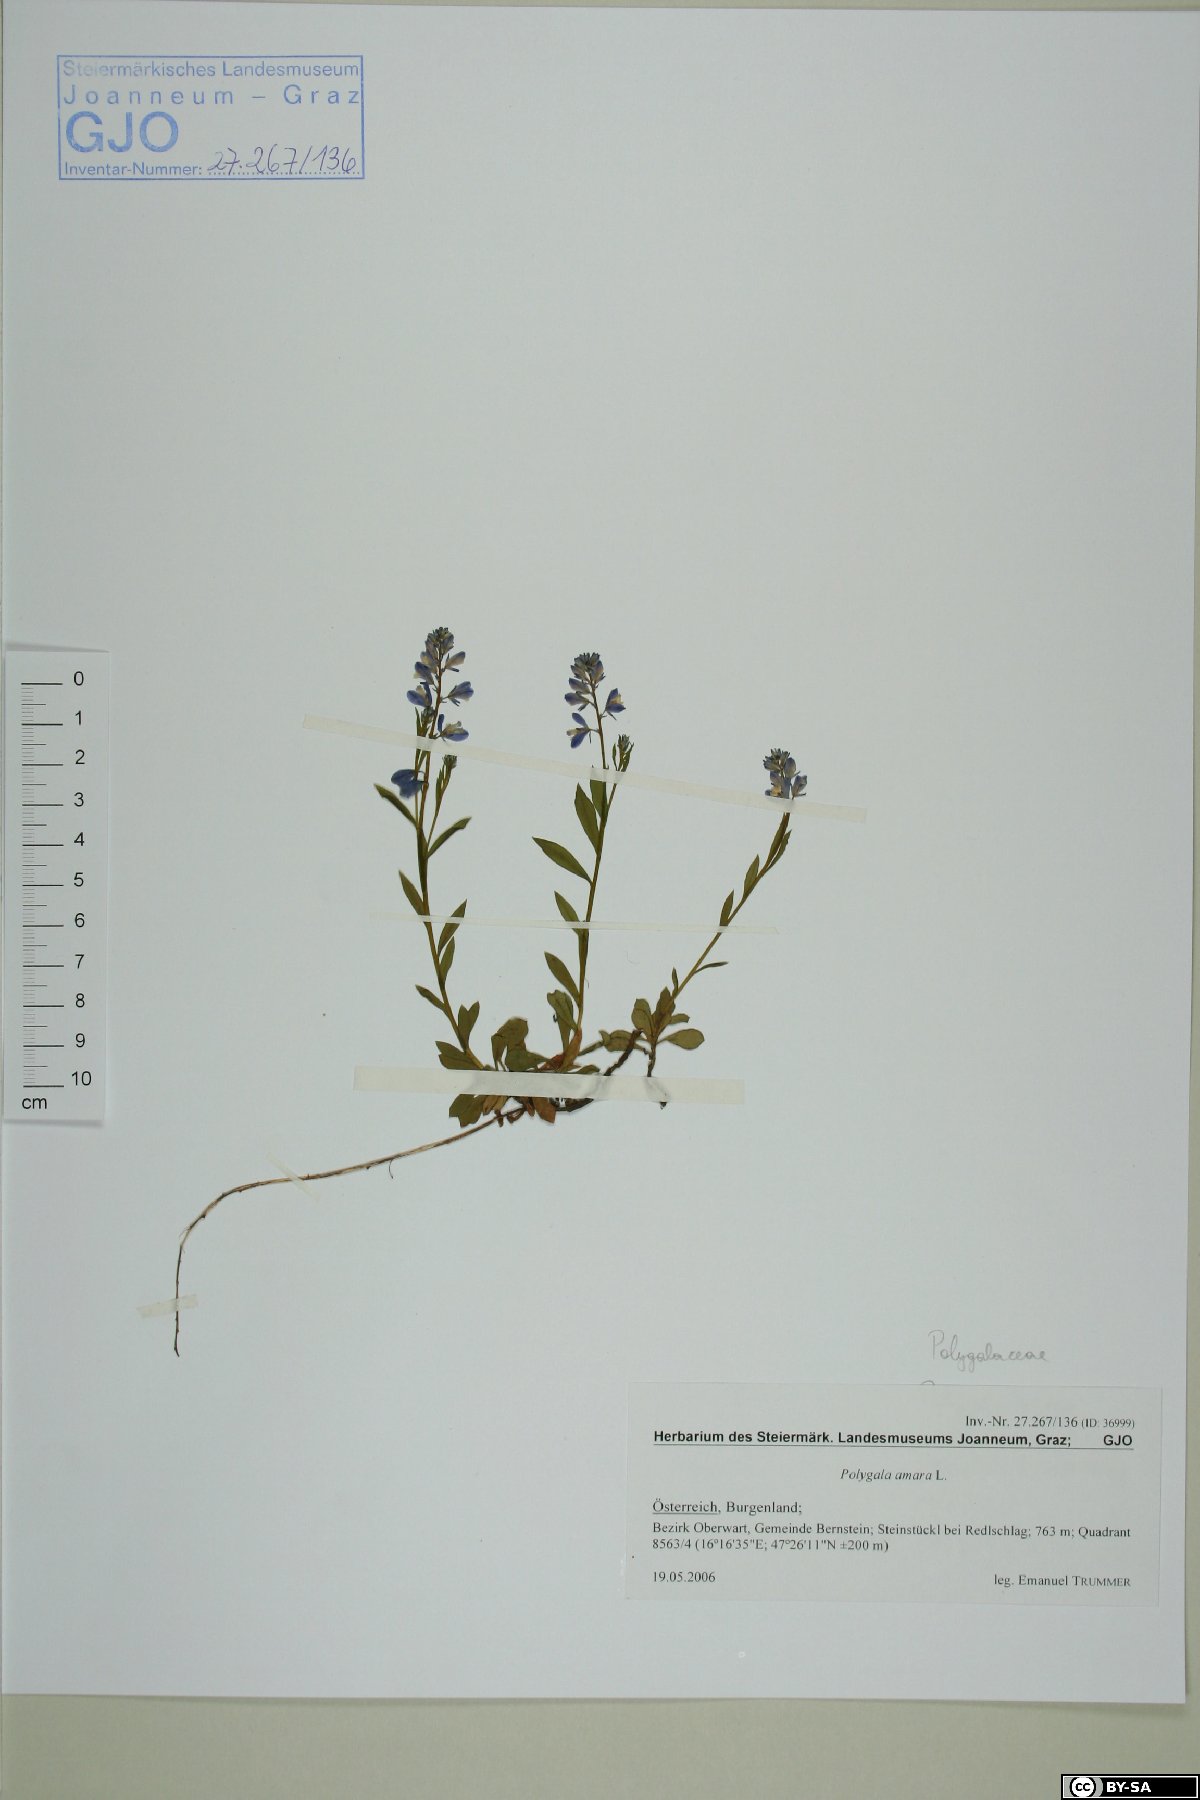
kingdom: Plantae
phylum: Tracheophyta
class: Magnoliopsida
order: Fabales
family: Polygalaceae
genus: Polygala
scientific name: Polygala amara
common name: Milkwort
